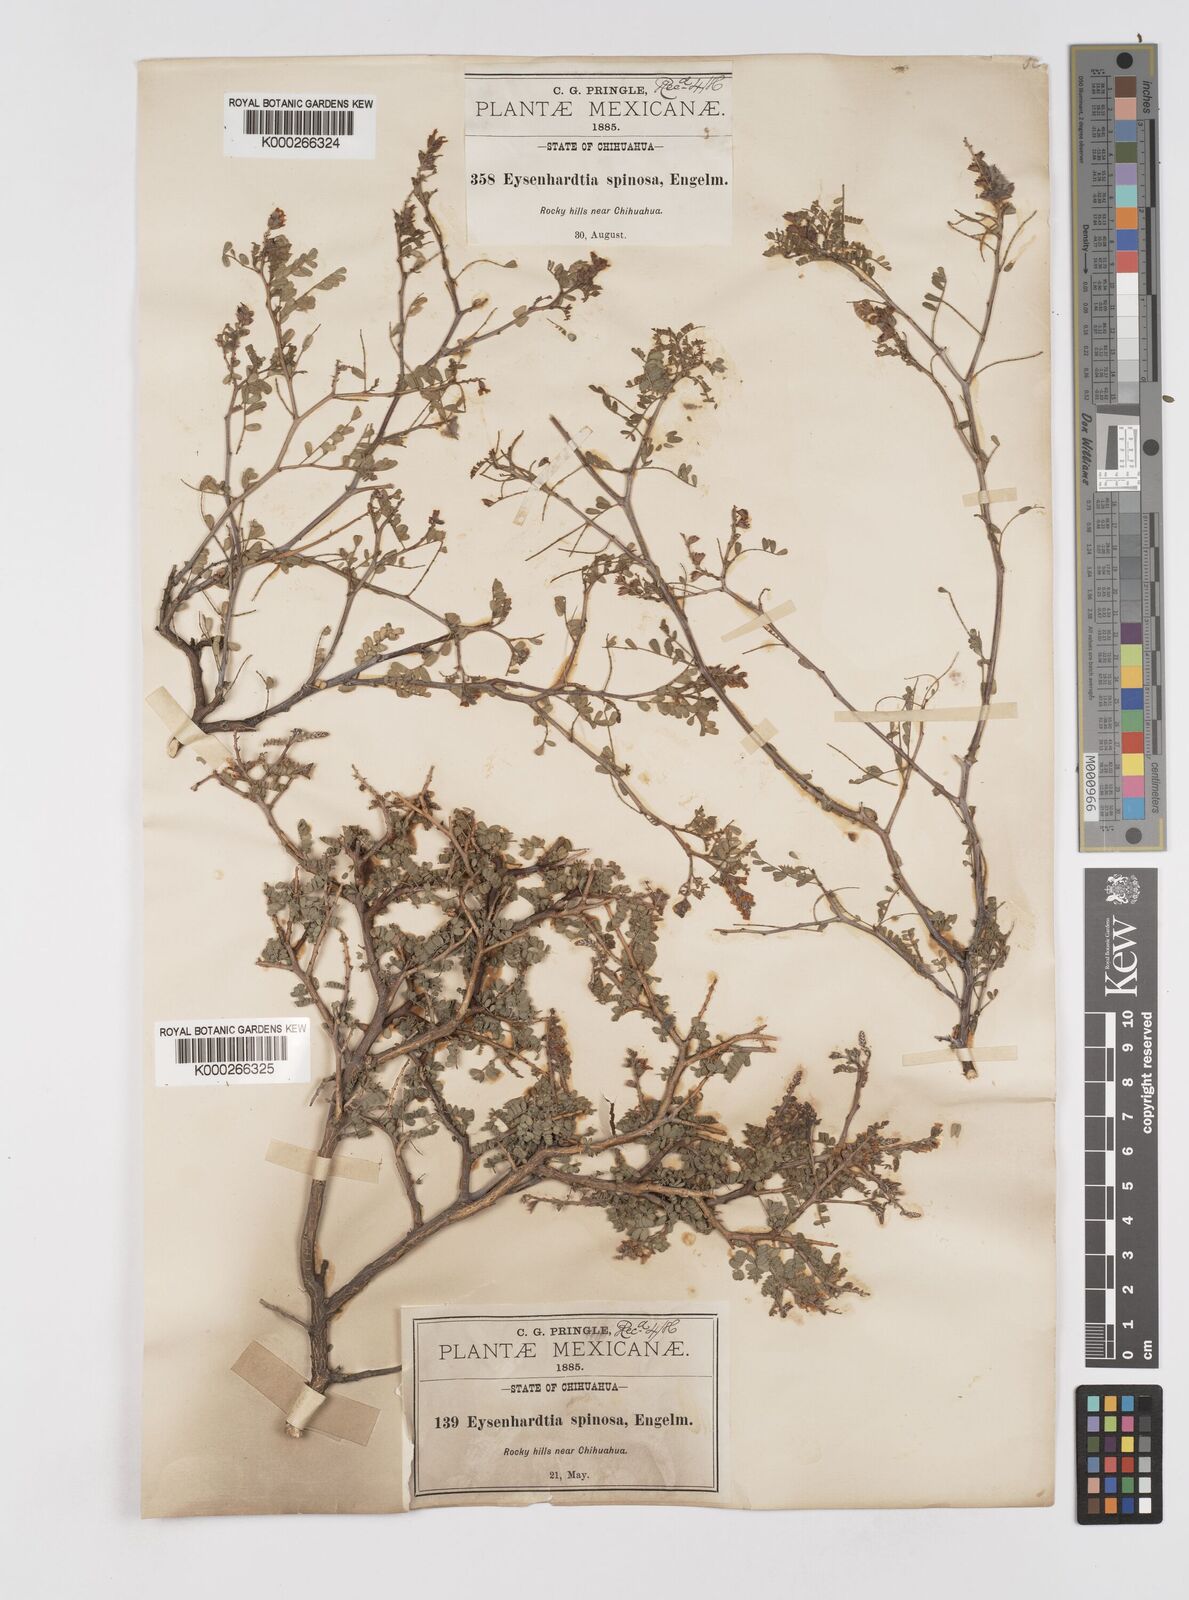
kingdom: Plantae
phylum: Tracheophyta
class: Magnoliopsida
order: Fabales
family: Fabaceae
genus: Eysenhardtia
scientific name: Eysenhardtia spinosa
